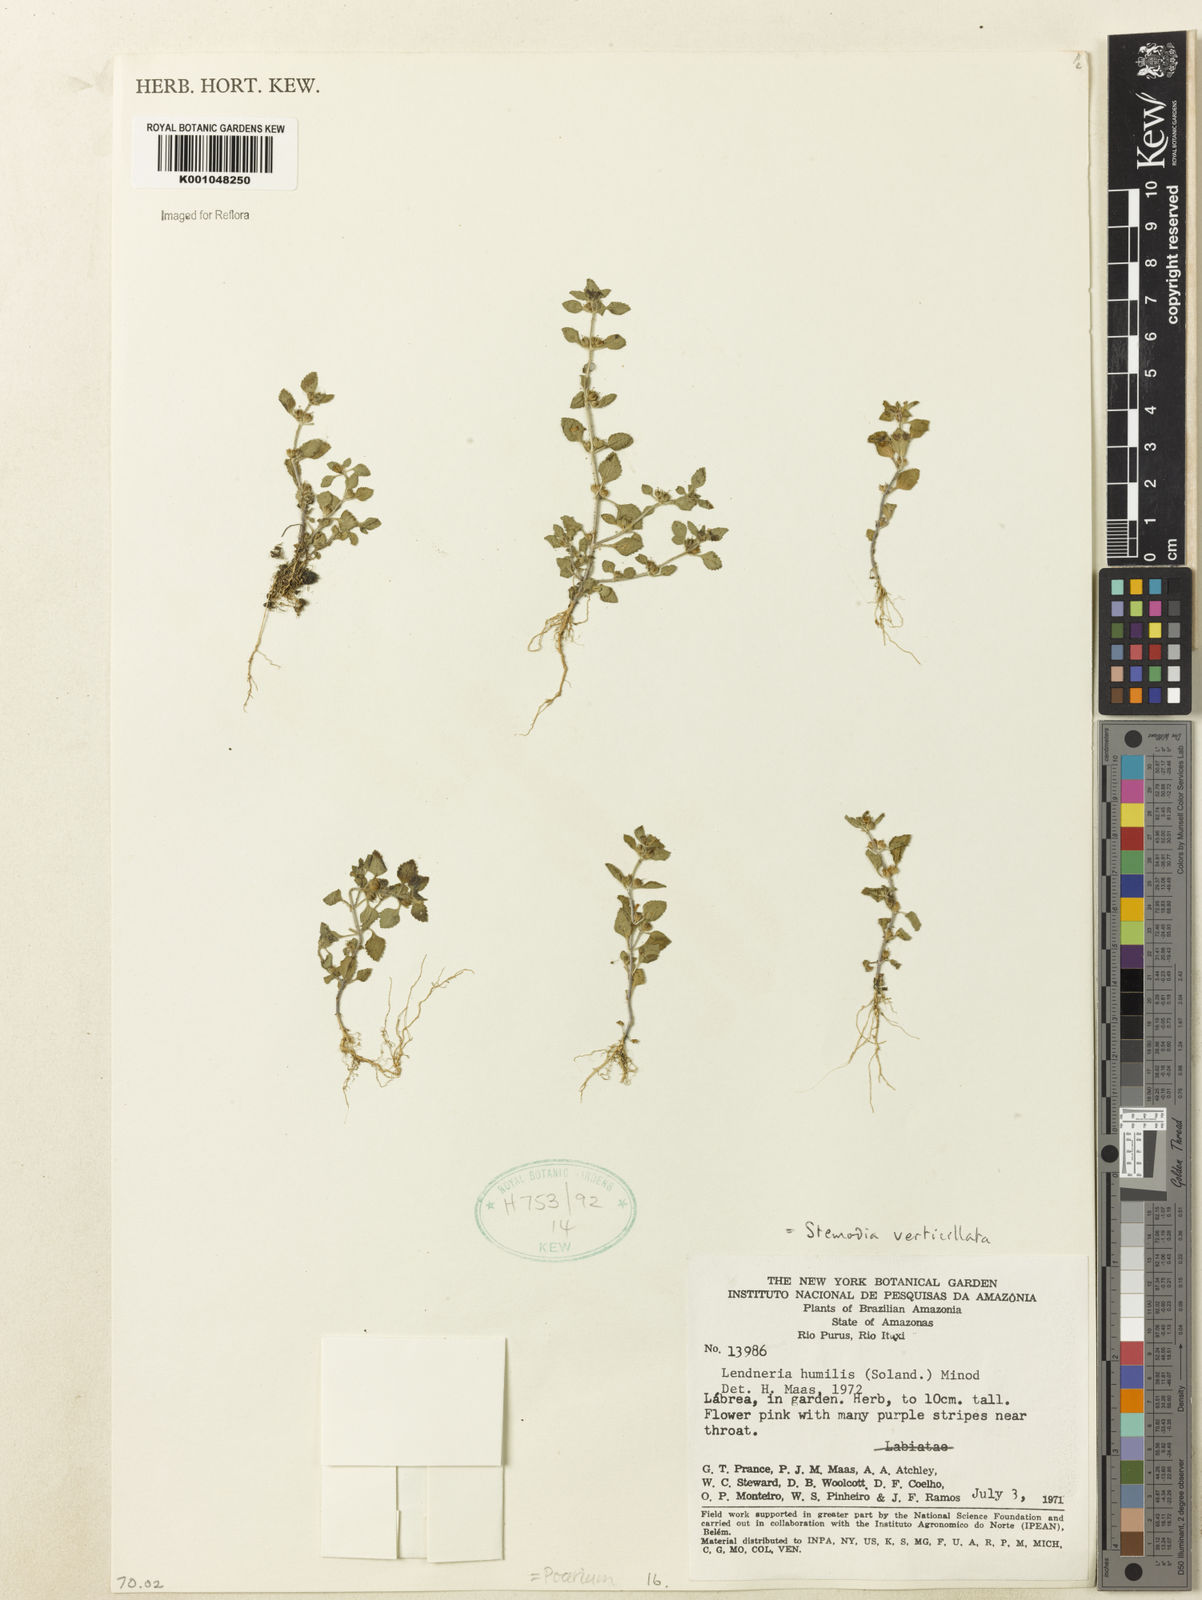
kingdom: Plantae
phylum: Tracheophyta
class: Magnoliopsida
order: Lamiales
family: Plantaginaceae
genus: Stemodia
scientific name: Stemodia verticillata
